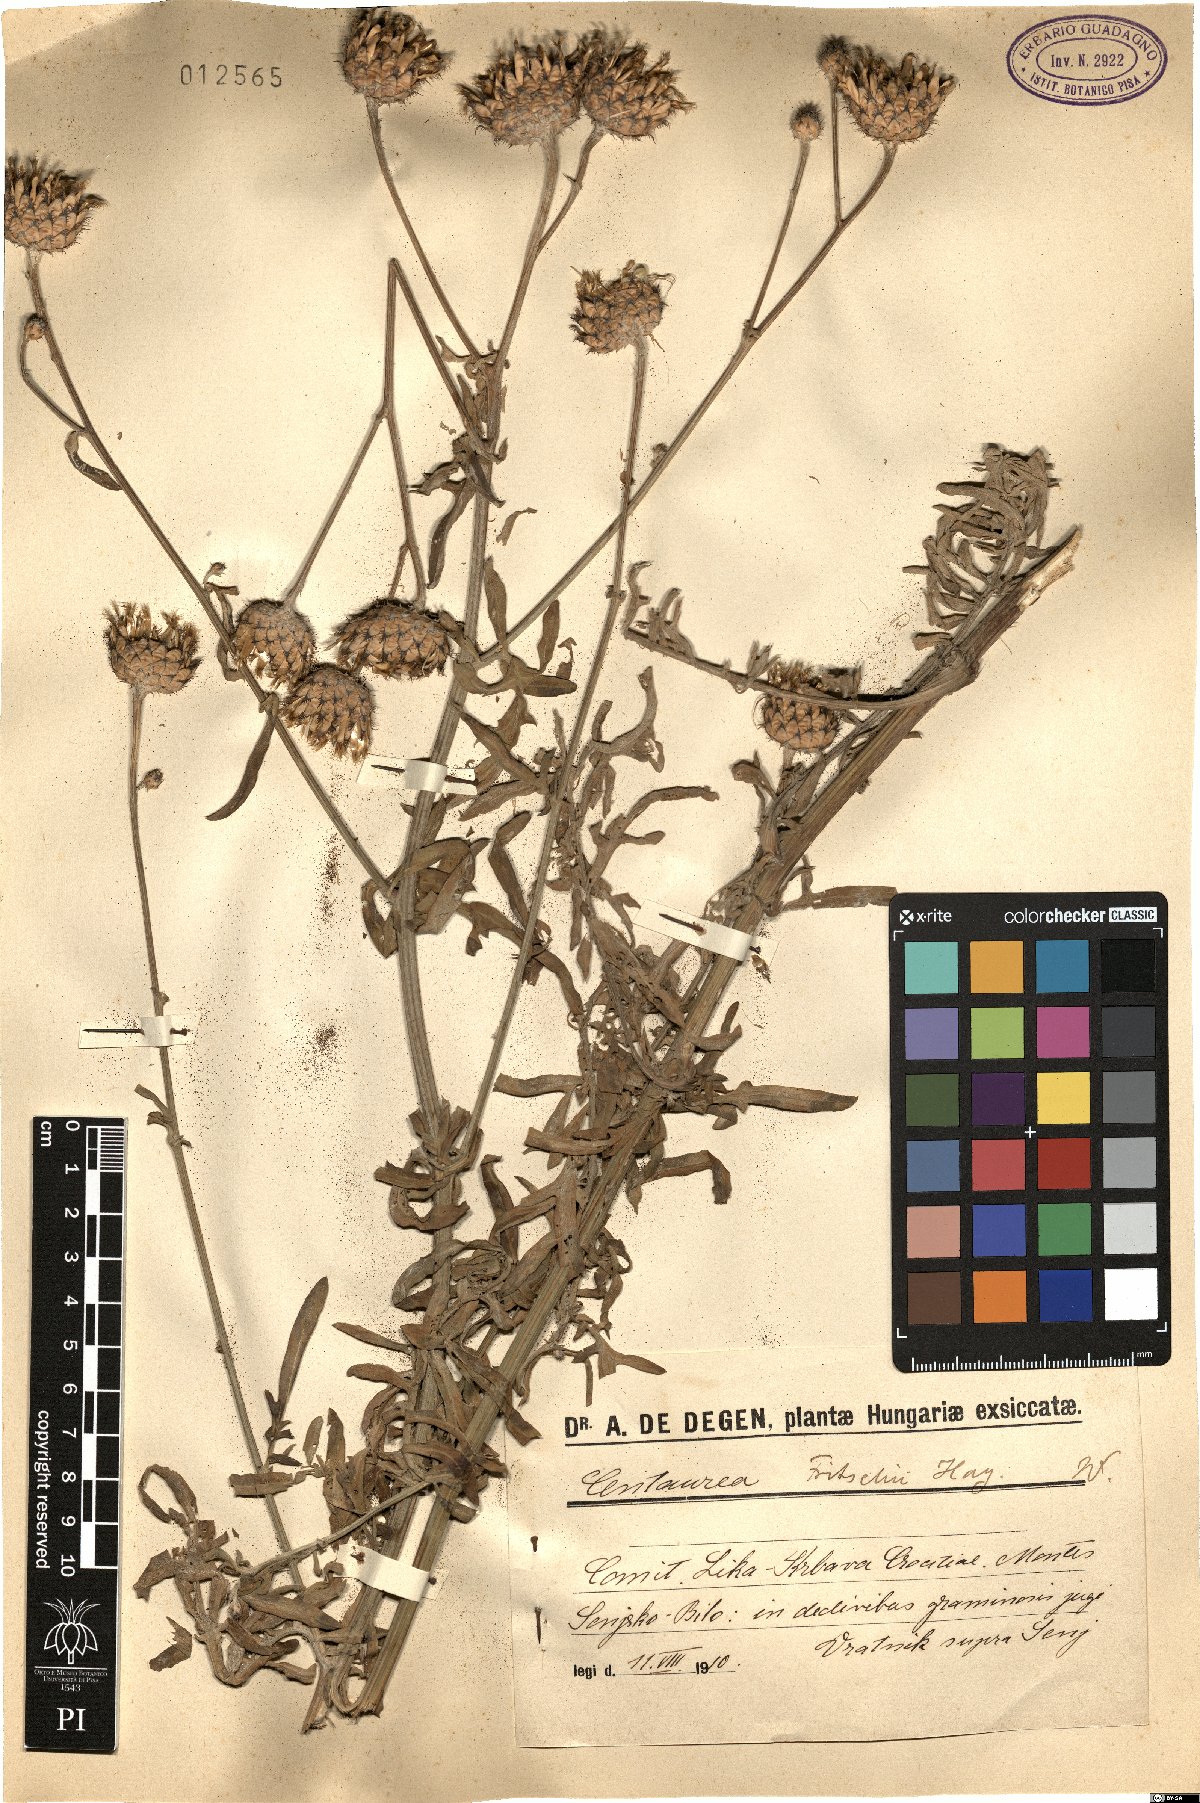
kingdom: Plantae
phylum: Tracheophyta
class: Magnoliopsida
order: Asterales
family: Asteraceae
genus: Centaurea
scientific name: Centaurea scabiosa
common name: Greater knapweed
